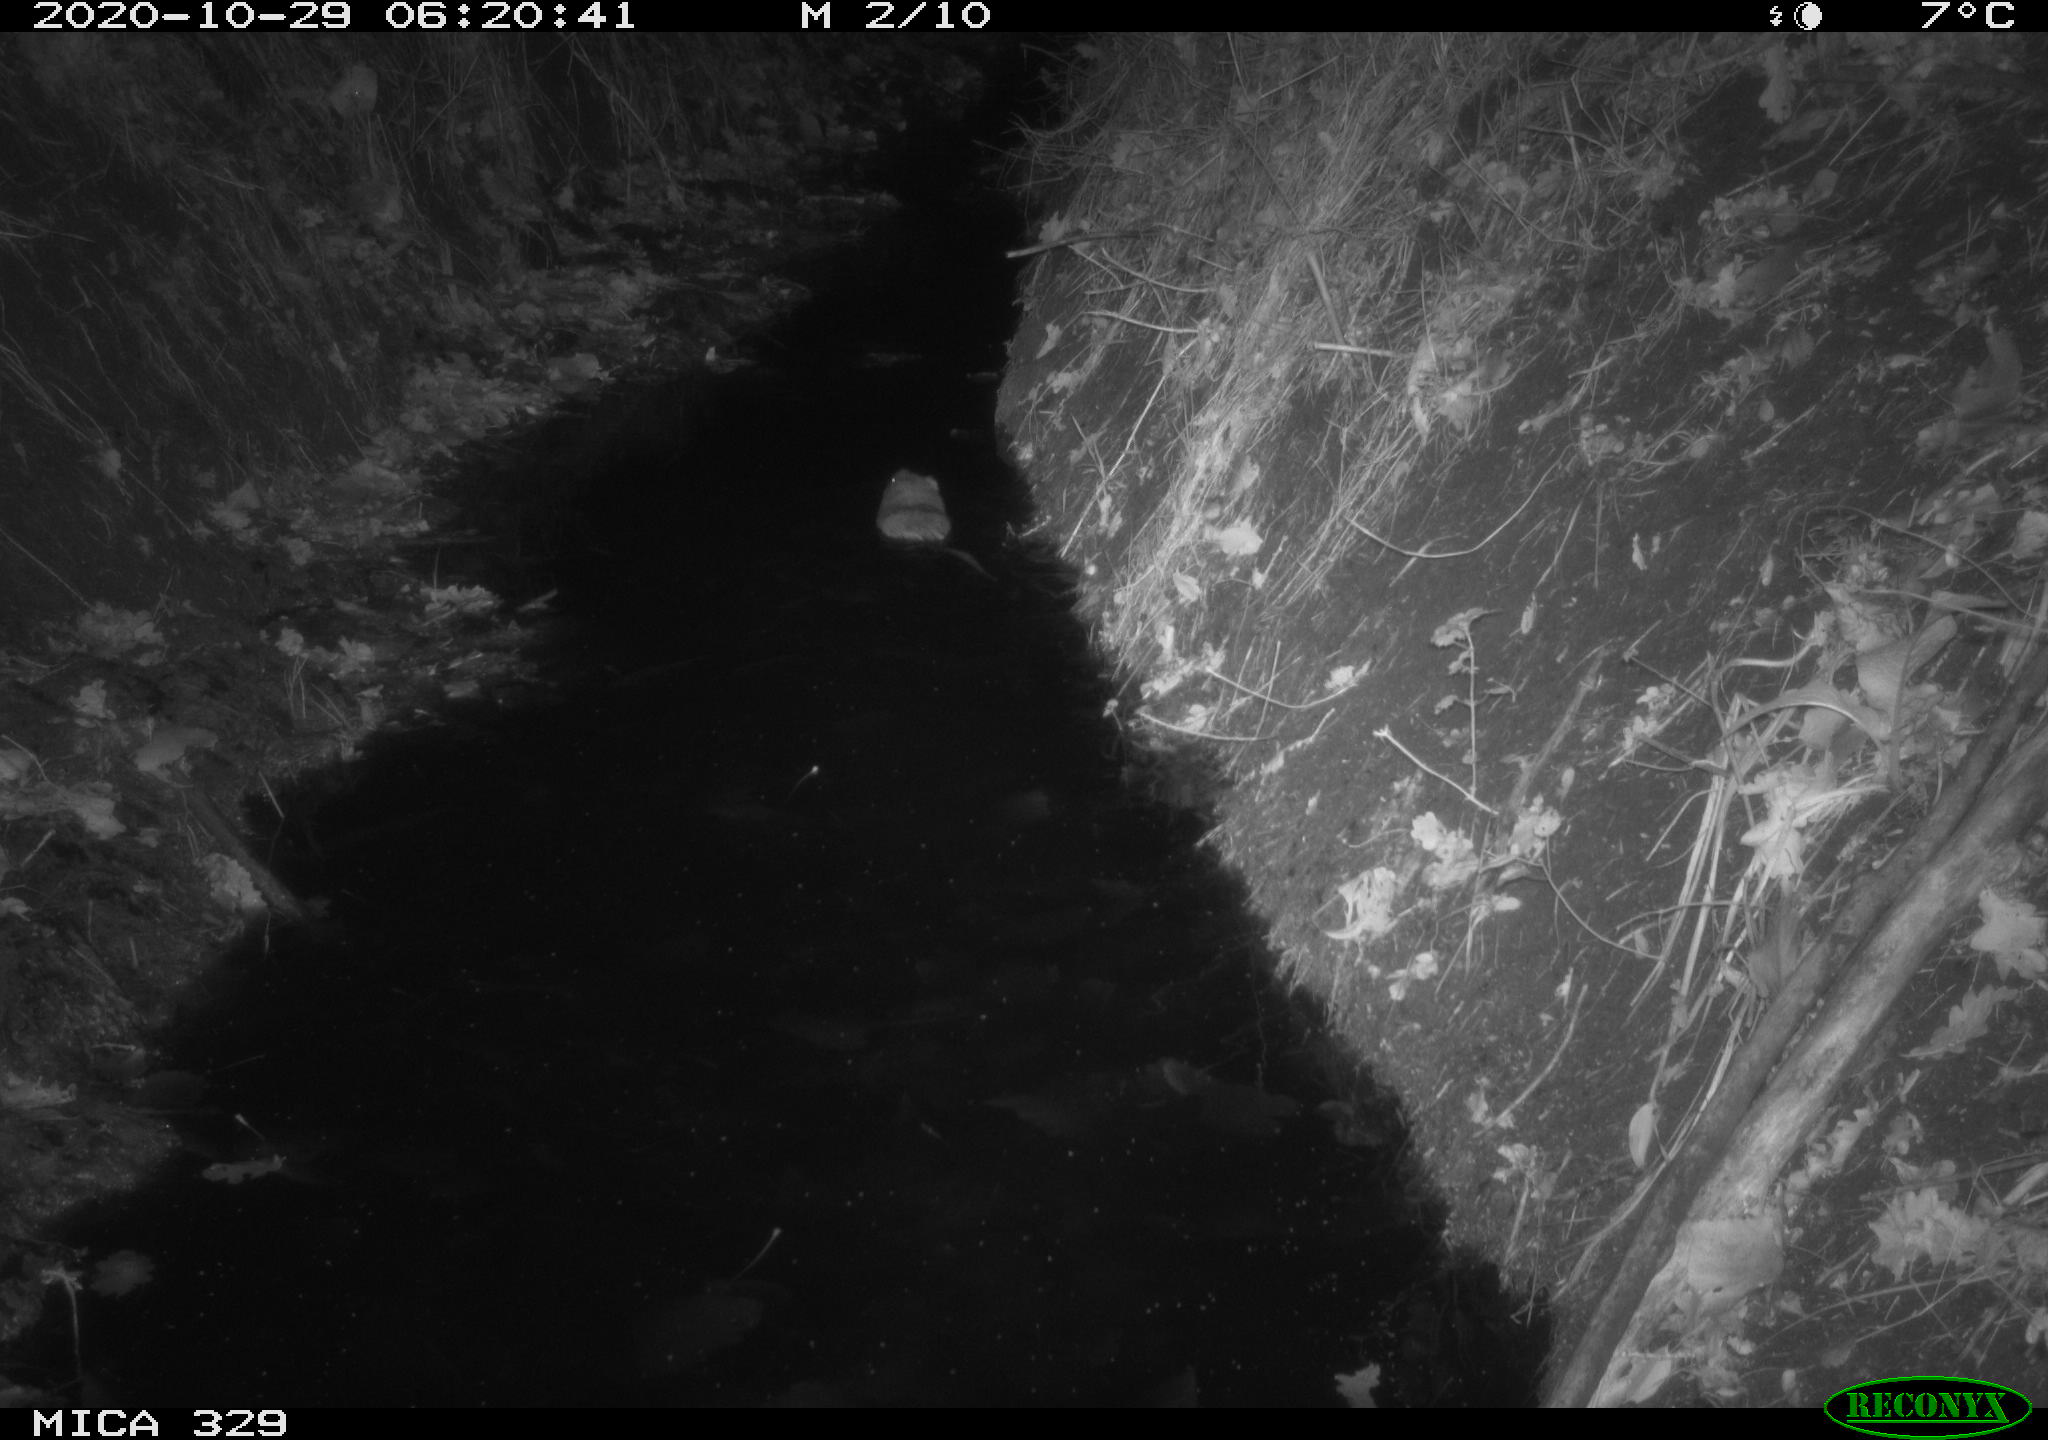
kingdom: Animalia
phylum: Chordata
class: Mammalia
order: Rodentia
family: Cricetidae
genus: Ondatra
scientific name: Ondatra zibethicus
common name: Muskrat
